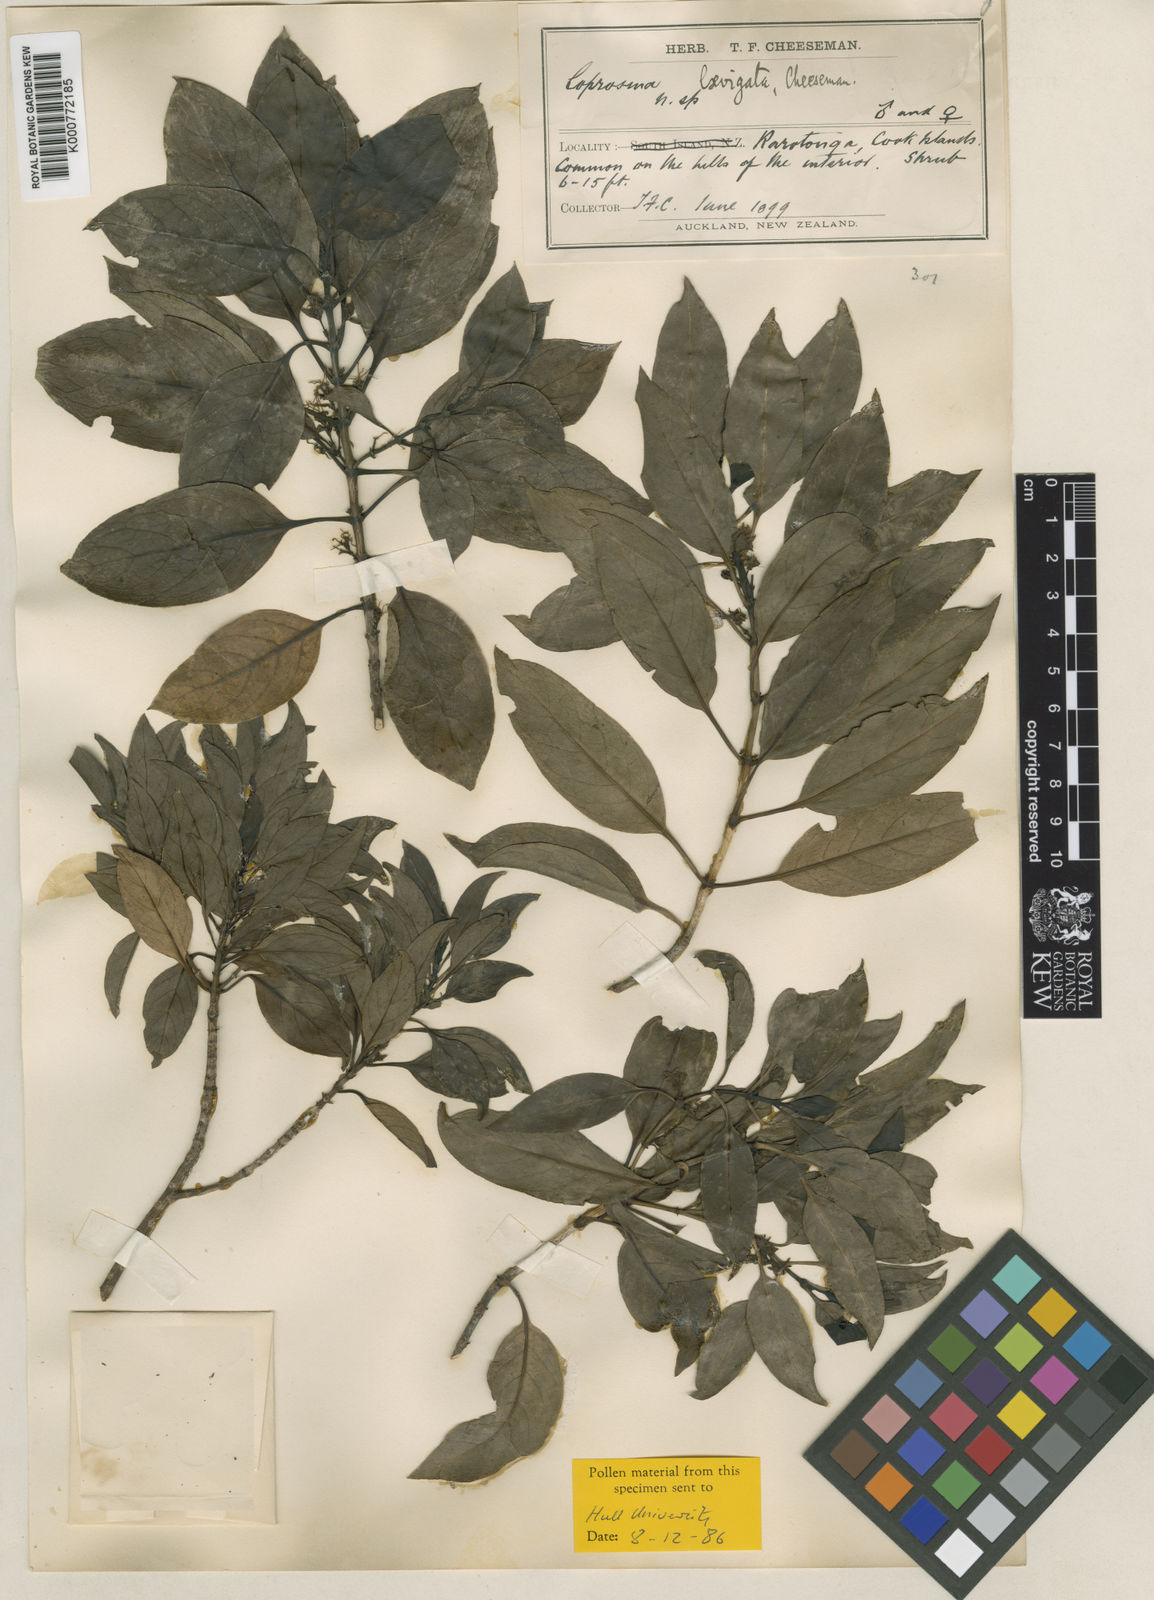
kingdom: Plantae
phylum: Tracheophyta
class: Magnoliopsida
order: Gentianales
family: Rubiaceae
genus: Coprosma
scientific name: Coprosma laevigata
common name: Rarotongan coprosma
